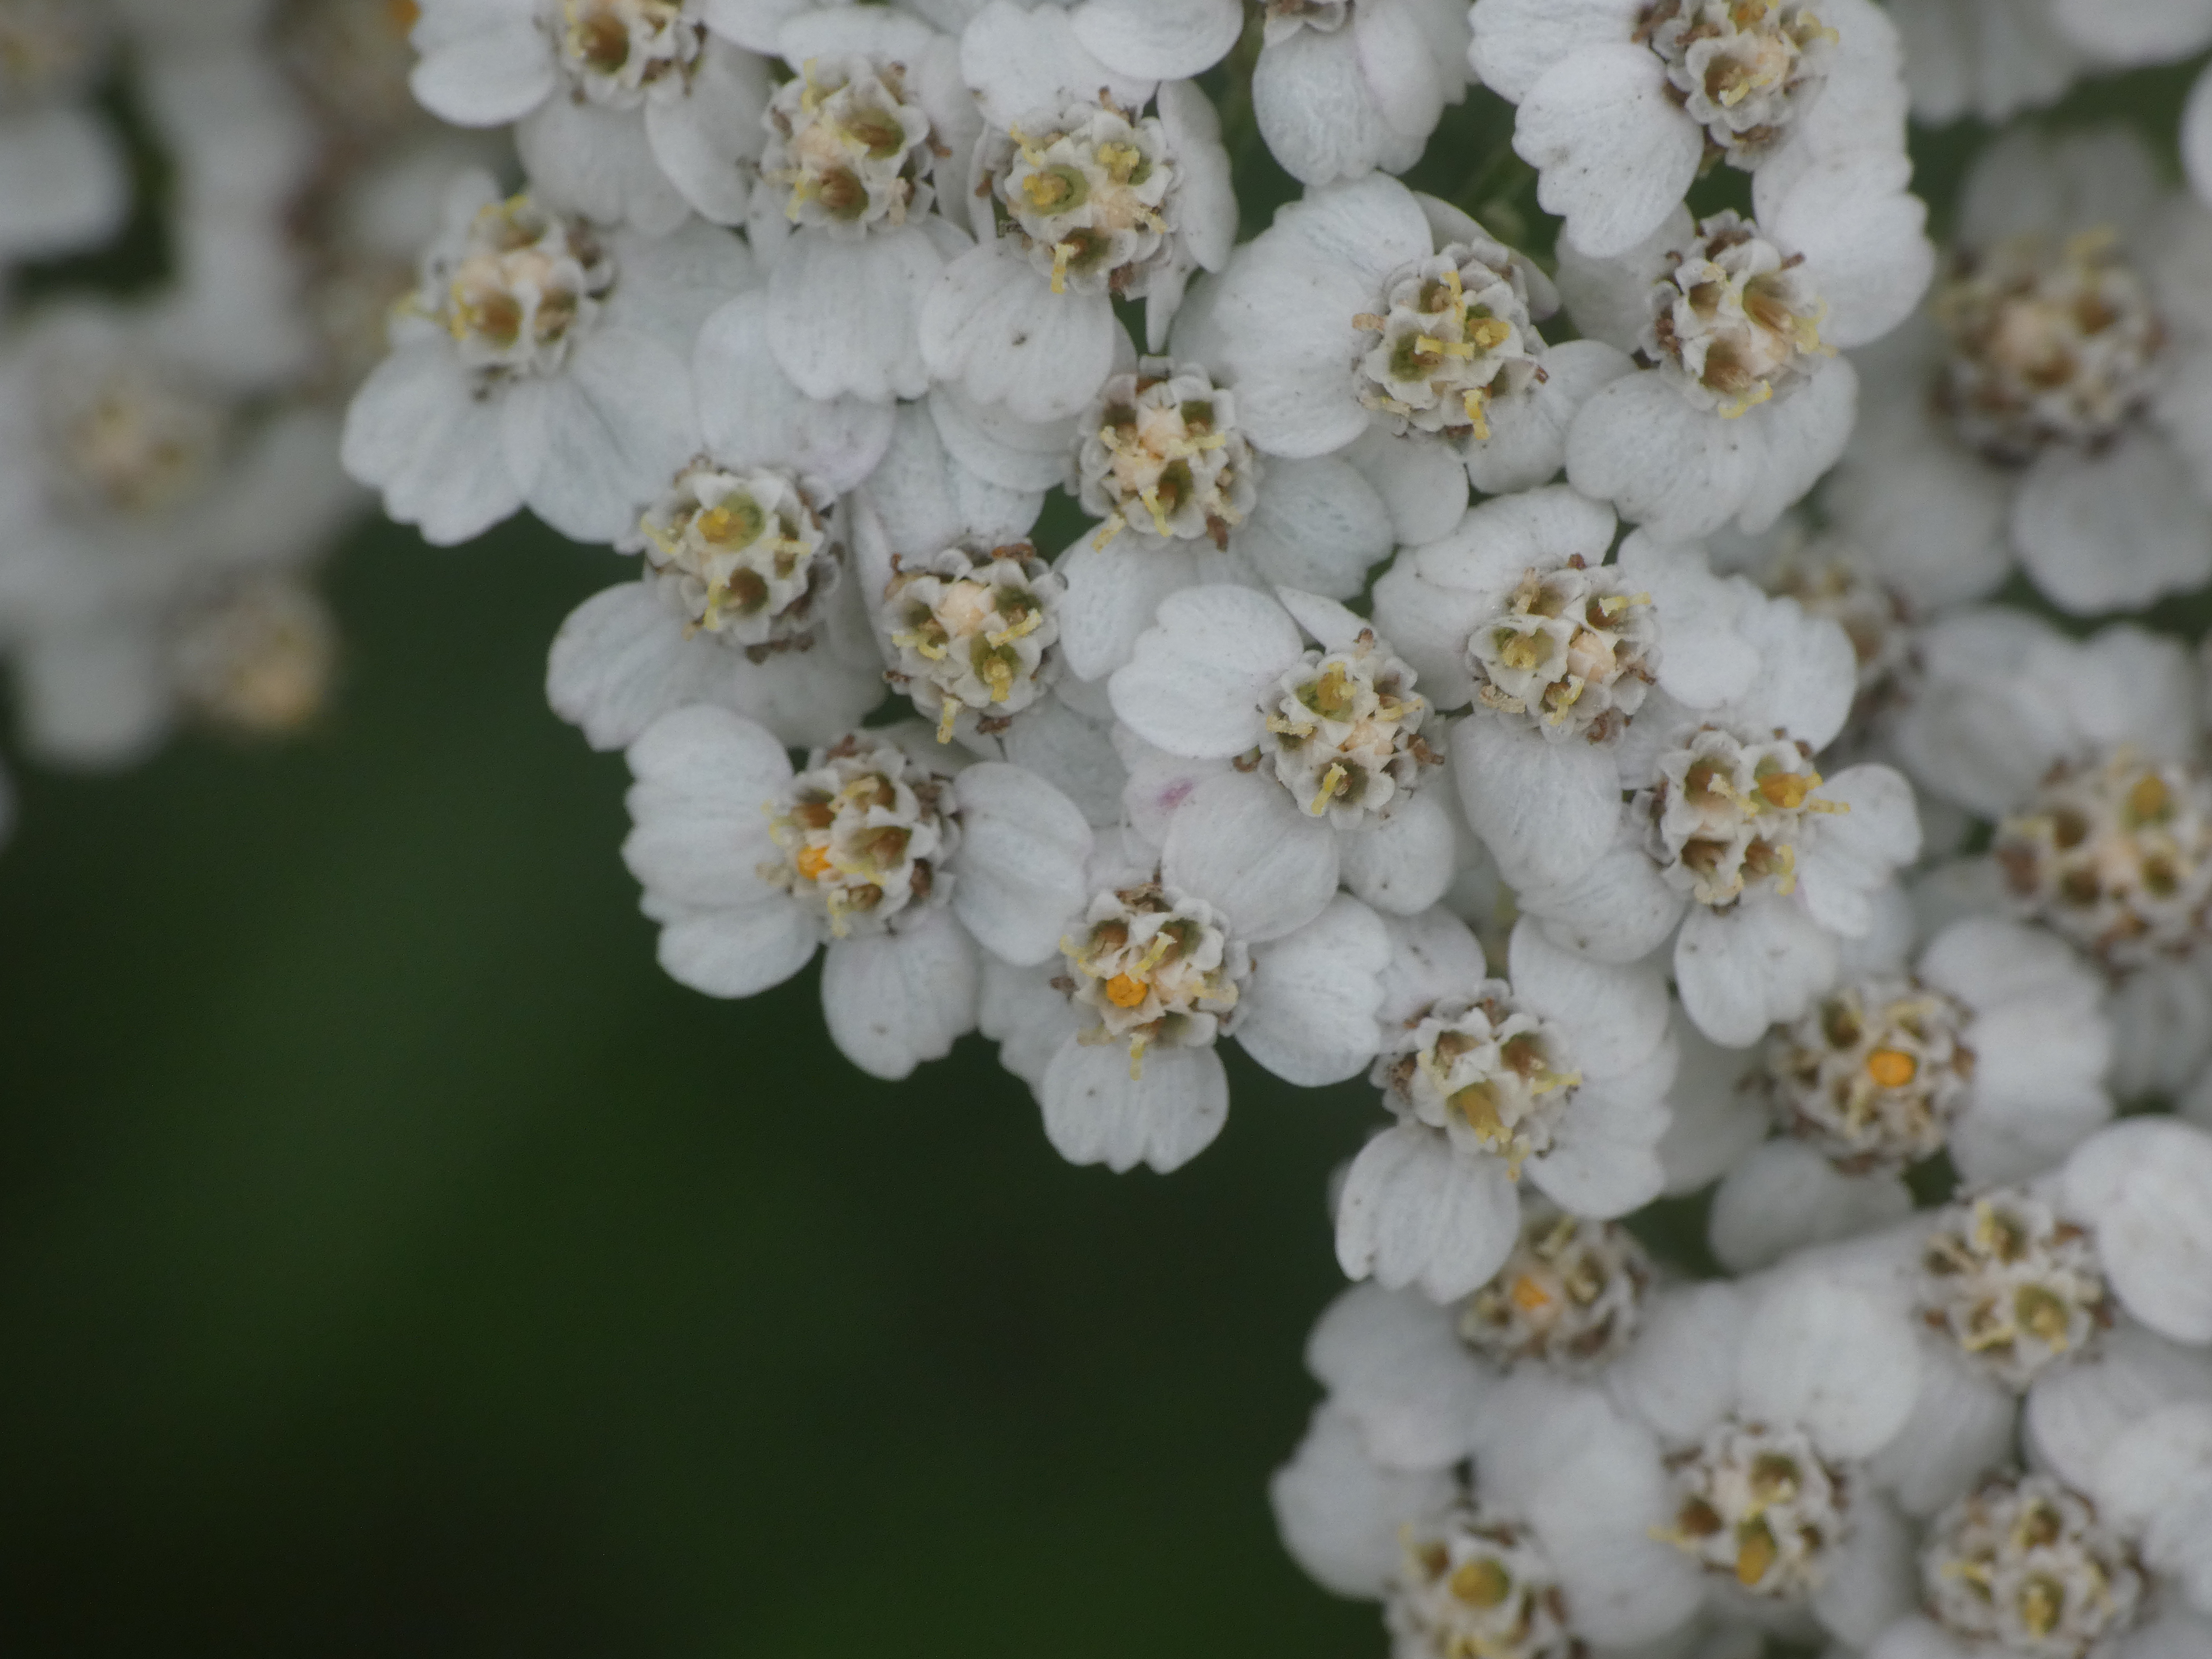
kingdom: Plantae
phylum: Tracheophyta
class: Magnoliopsida
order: Asterales
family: Asteraceae
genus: Achillea
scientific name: Achillea millefolium
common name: Almindelig røllike
